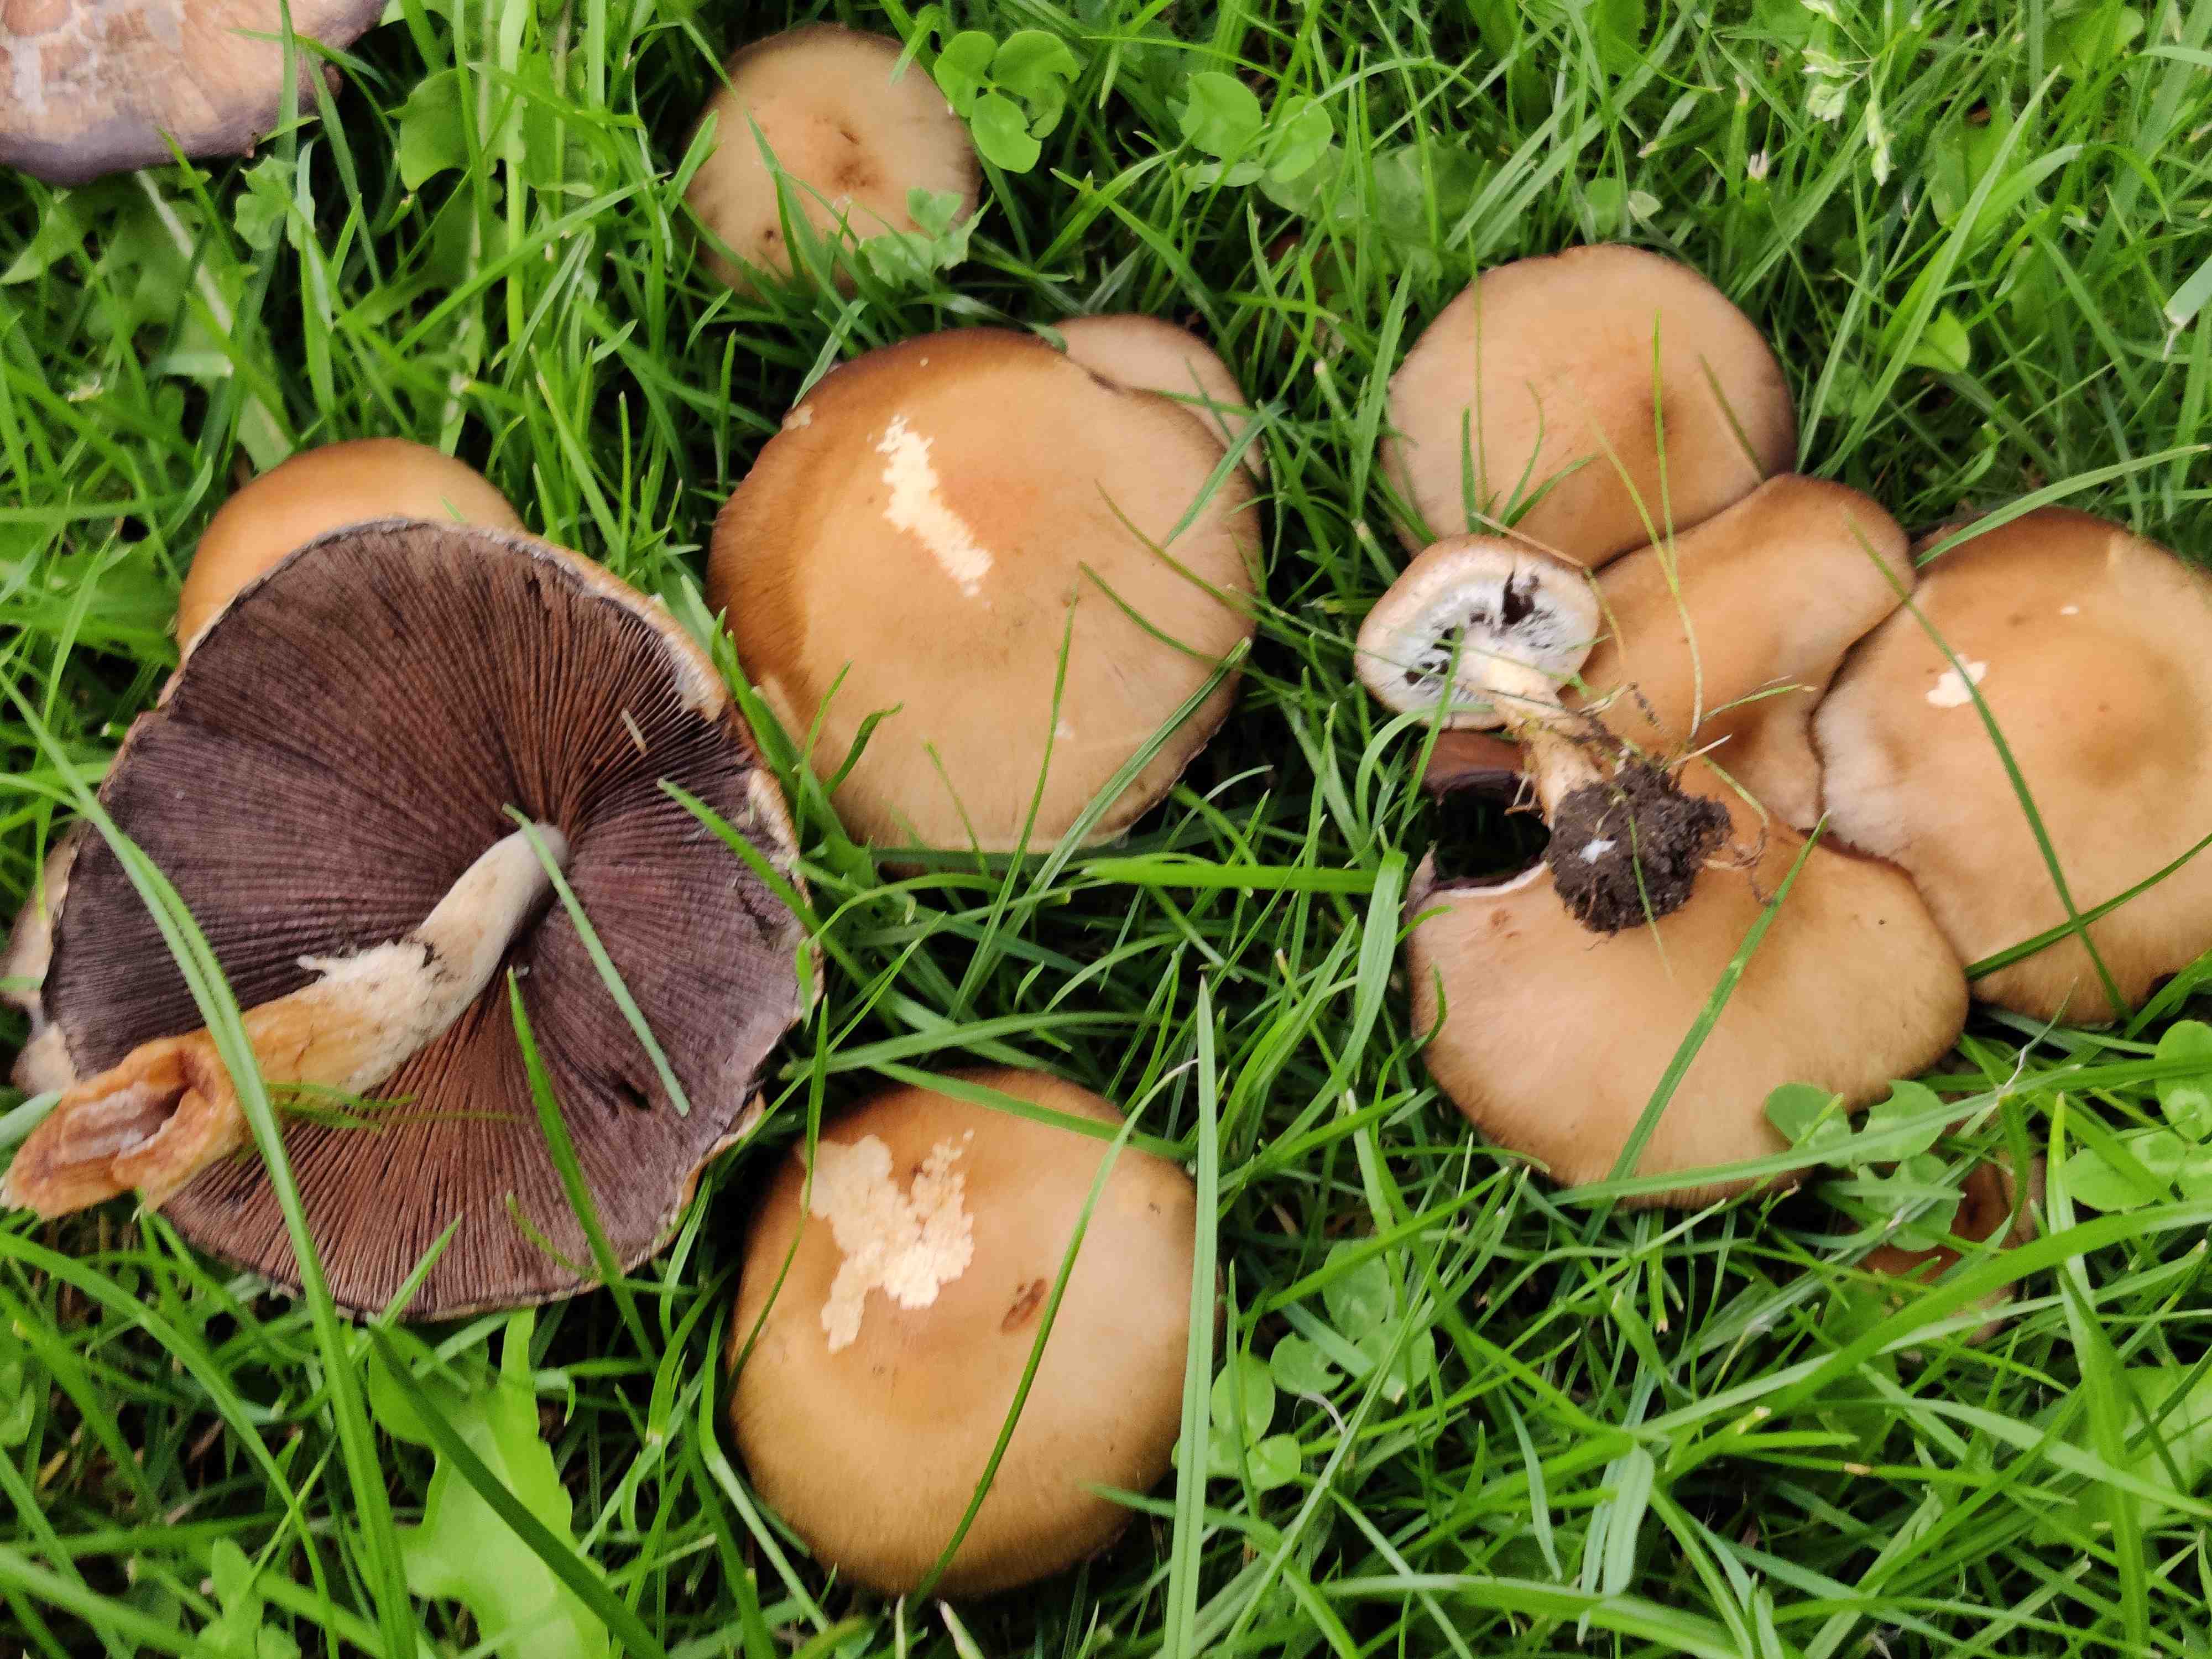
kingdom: Fungi
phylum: Basidiomycota
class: Agaricomycetes
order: Agaricales
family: Psathyrellaceae
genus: Lacrymaria
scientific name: Lacrymaria lacrymabunda
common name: grædende mørkhat
